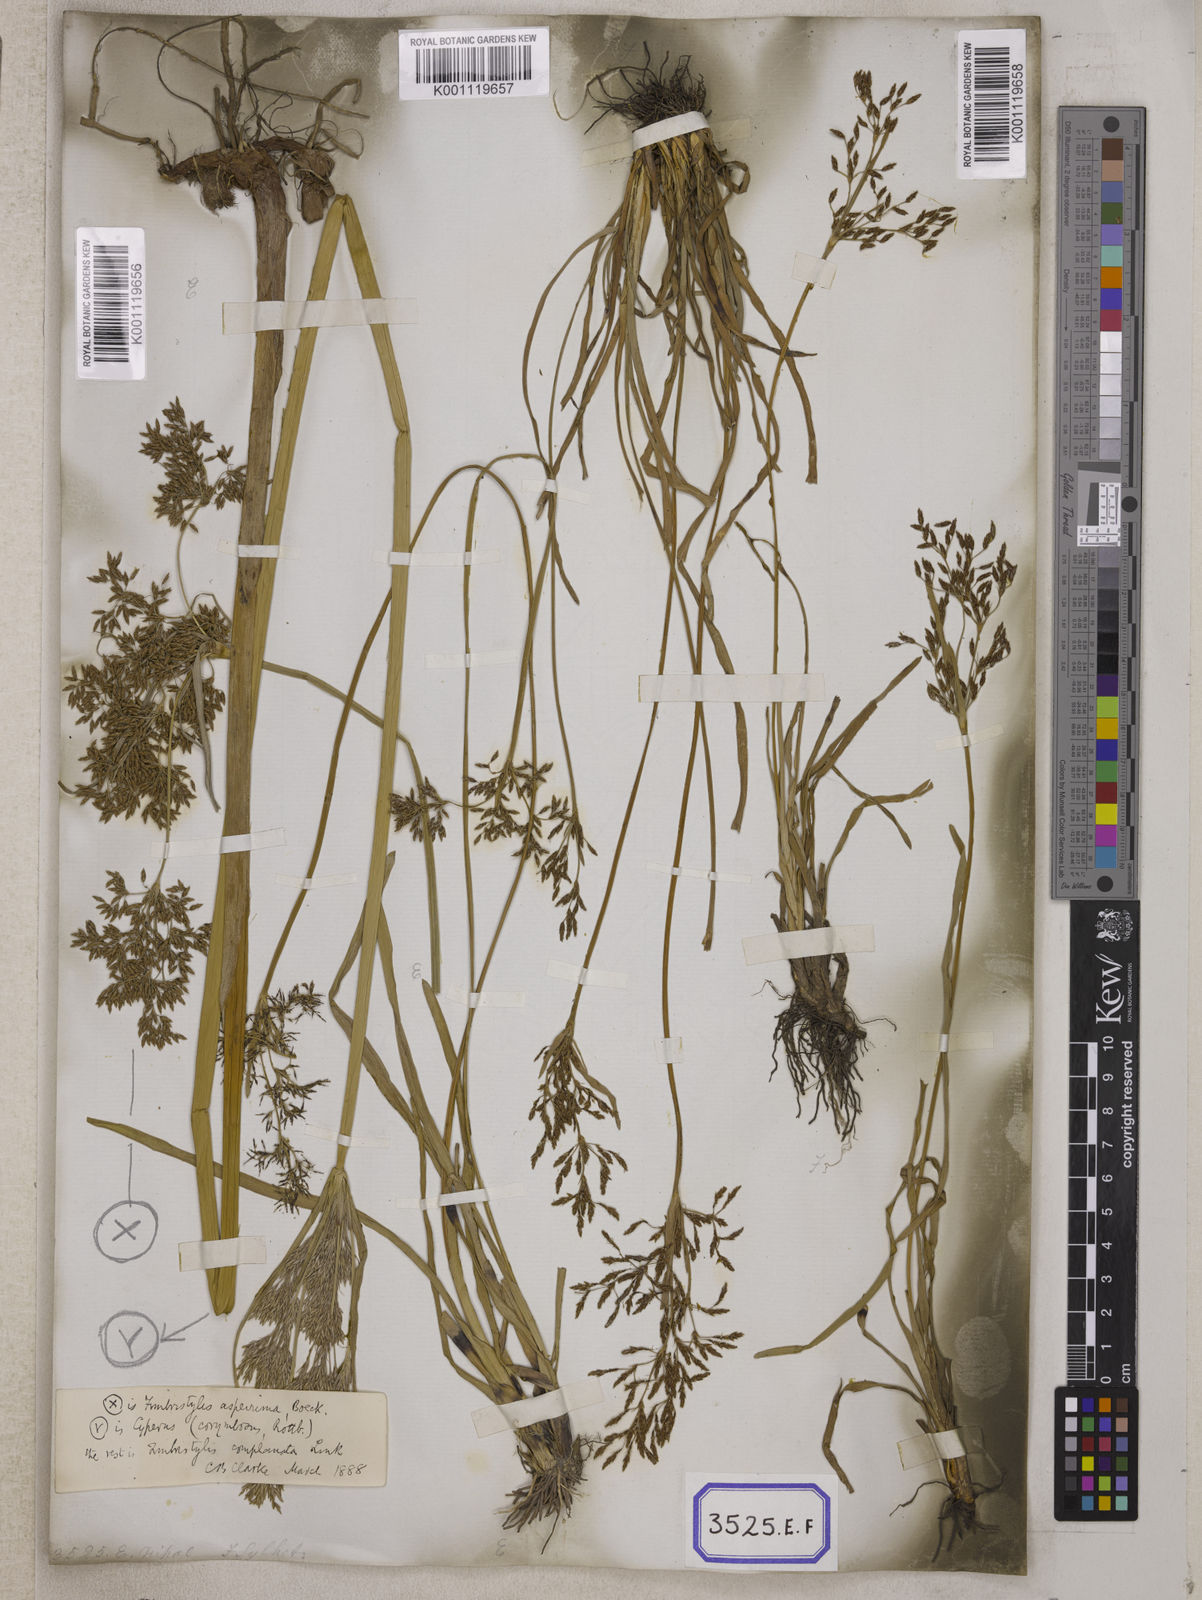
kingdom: Plantae
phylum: Tracheophyta
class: Liliopsida
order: Poales
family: Cyperaceae
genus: Fimbristylis
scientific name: Fimbristylis
